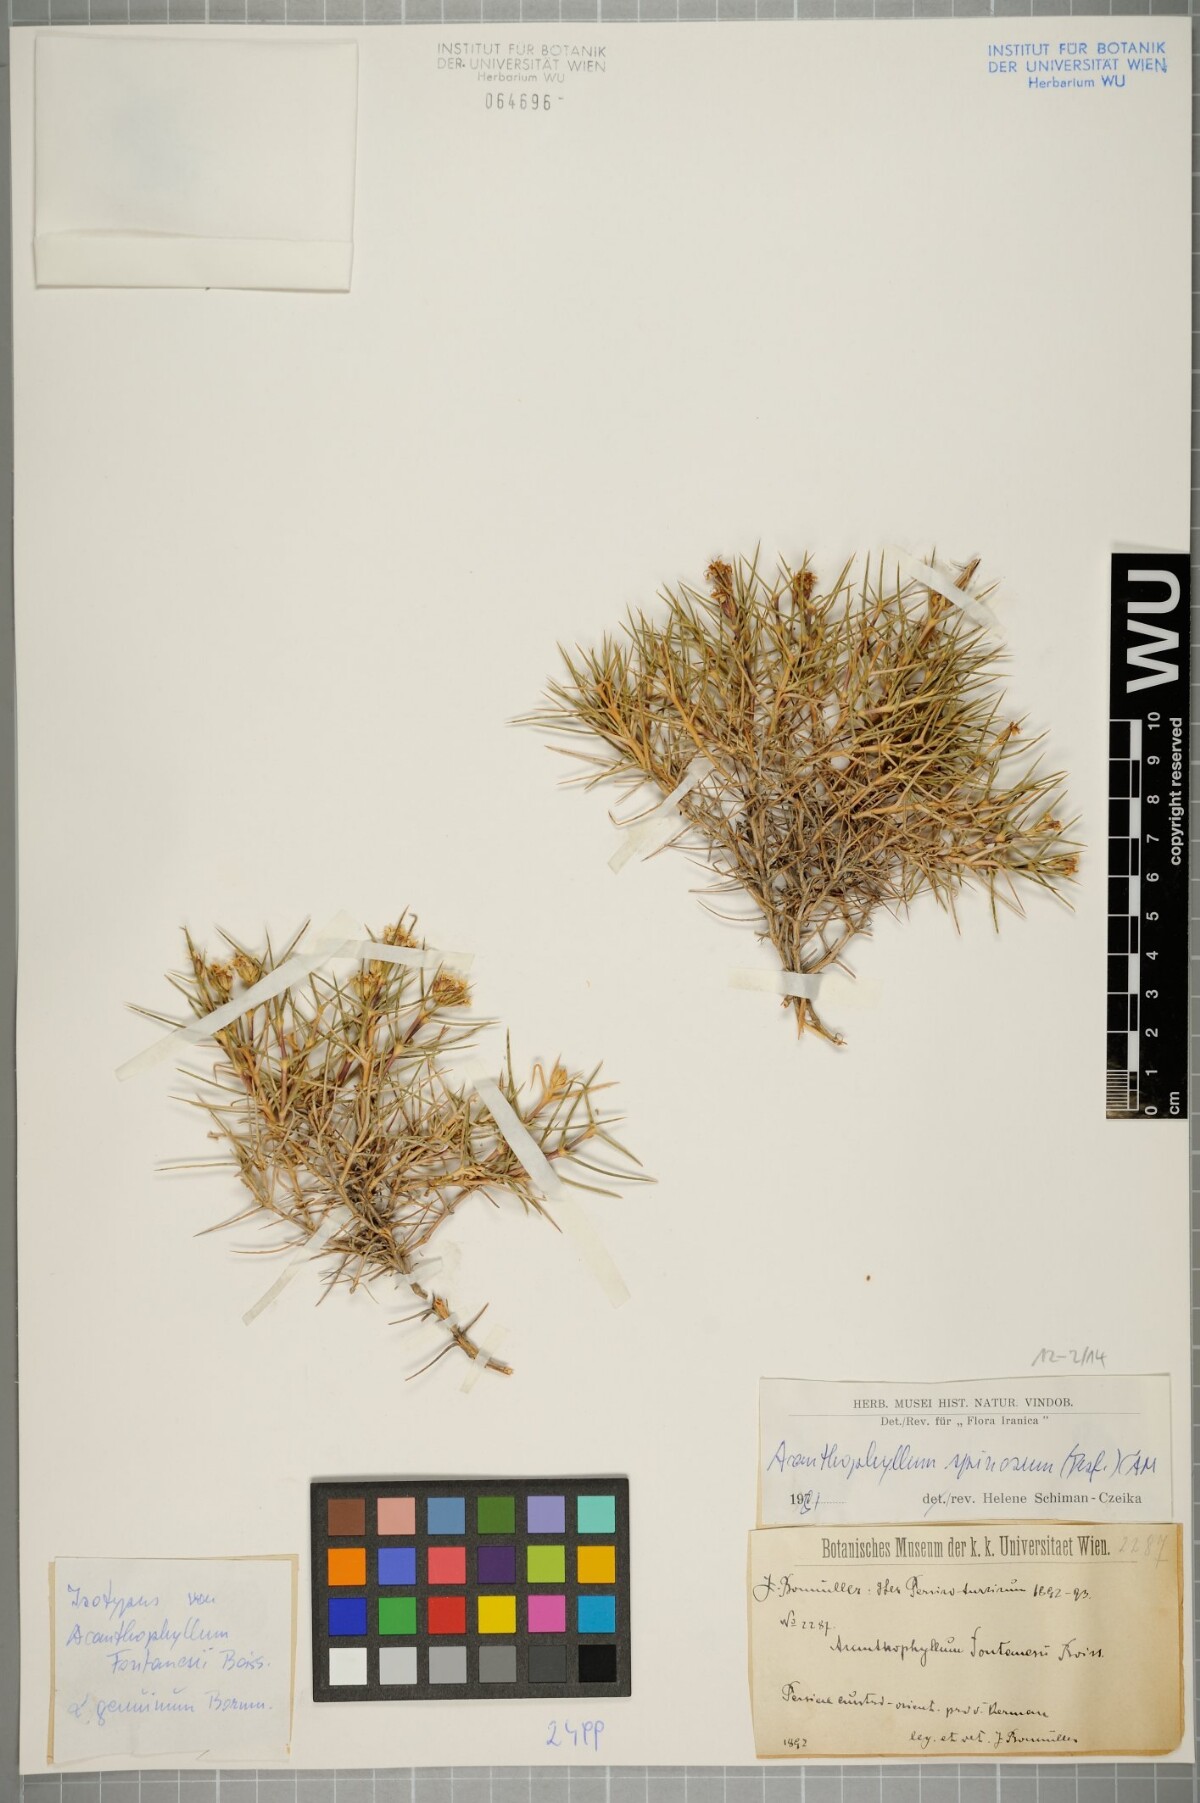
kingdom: Plantae
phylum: Tracheophyta
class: Magnoliopsida
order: Caryophyllales
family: Caryophyllaceae
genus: Acanthophyllum
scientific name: Acanthophyllum spinosum
